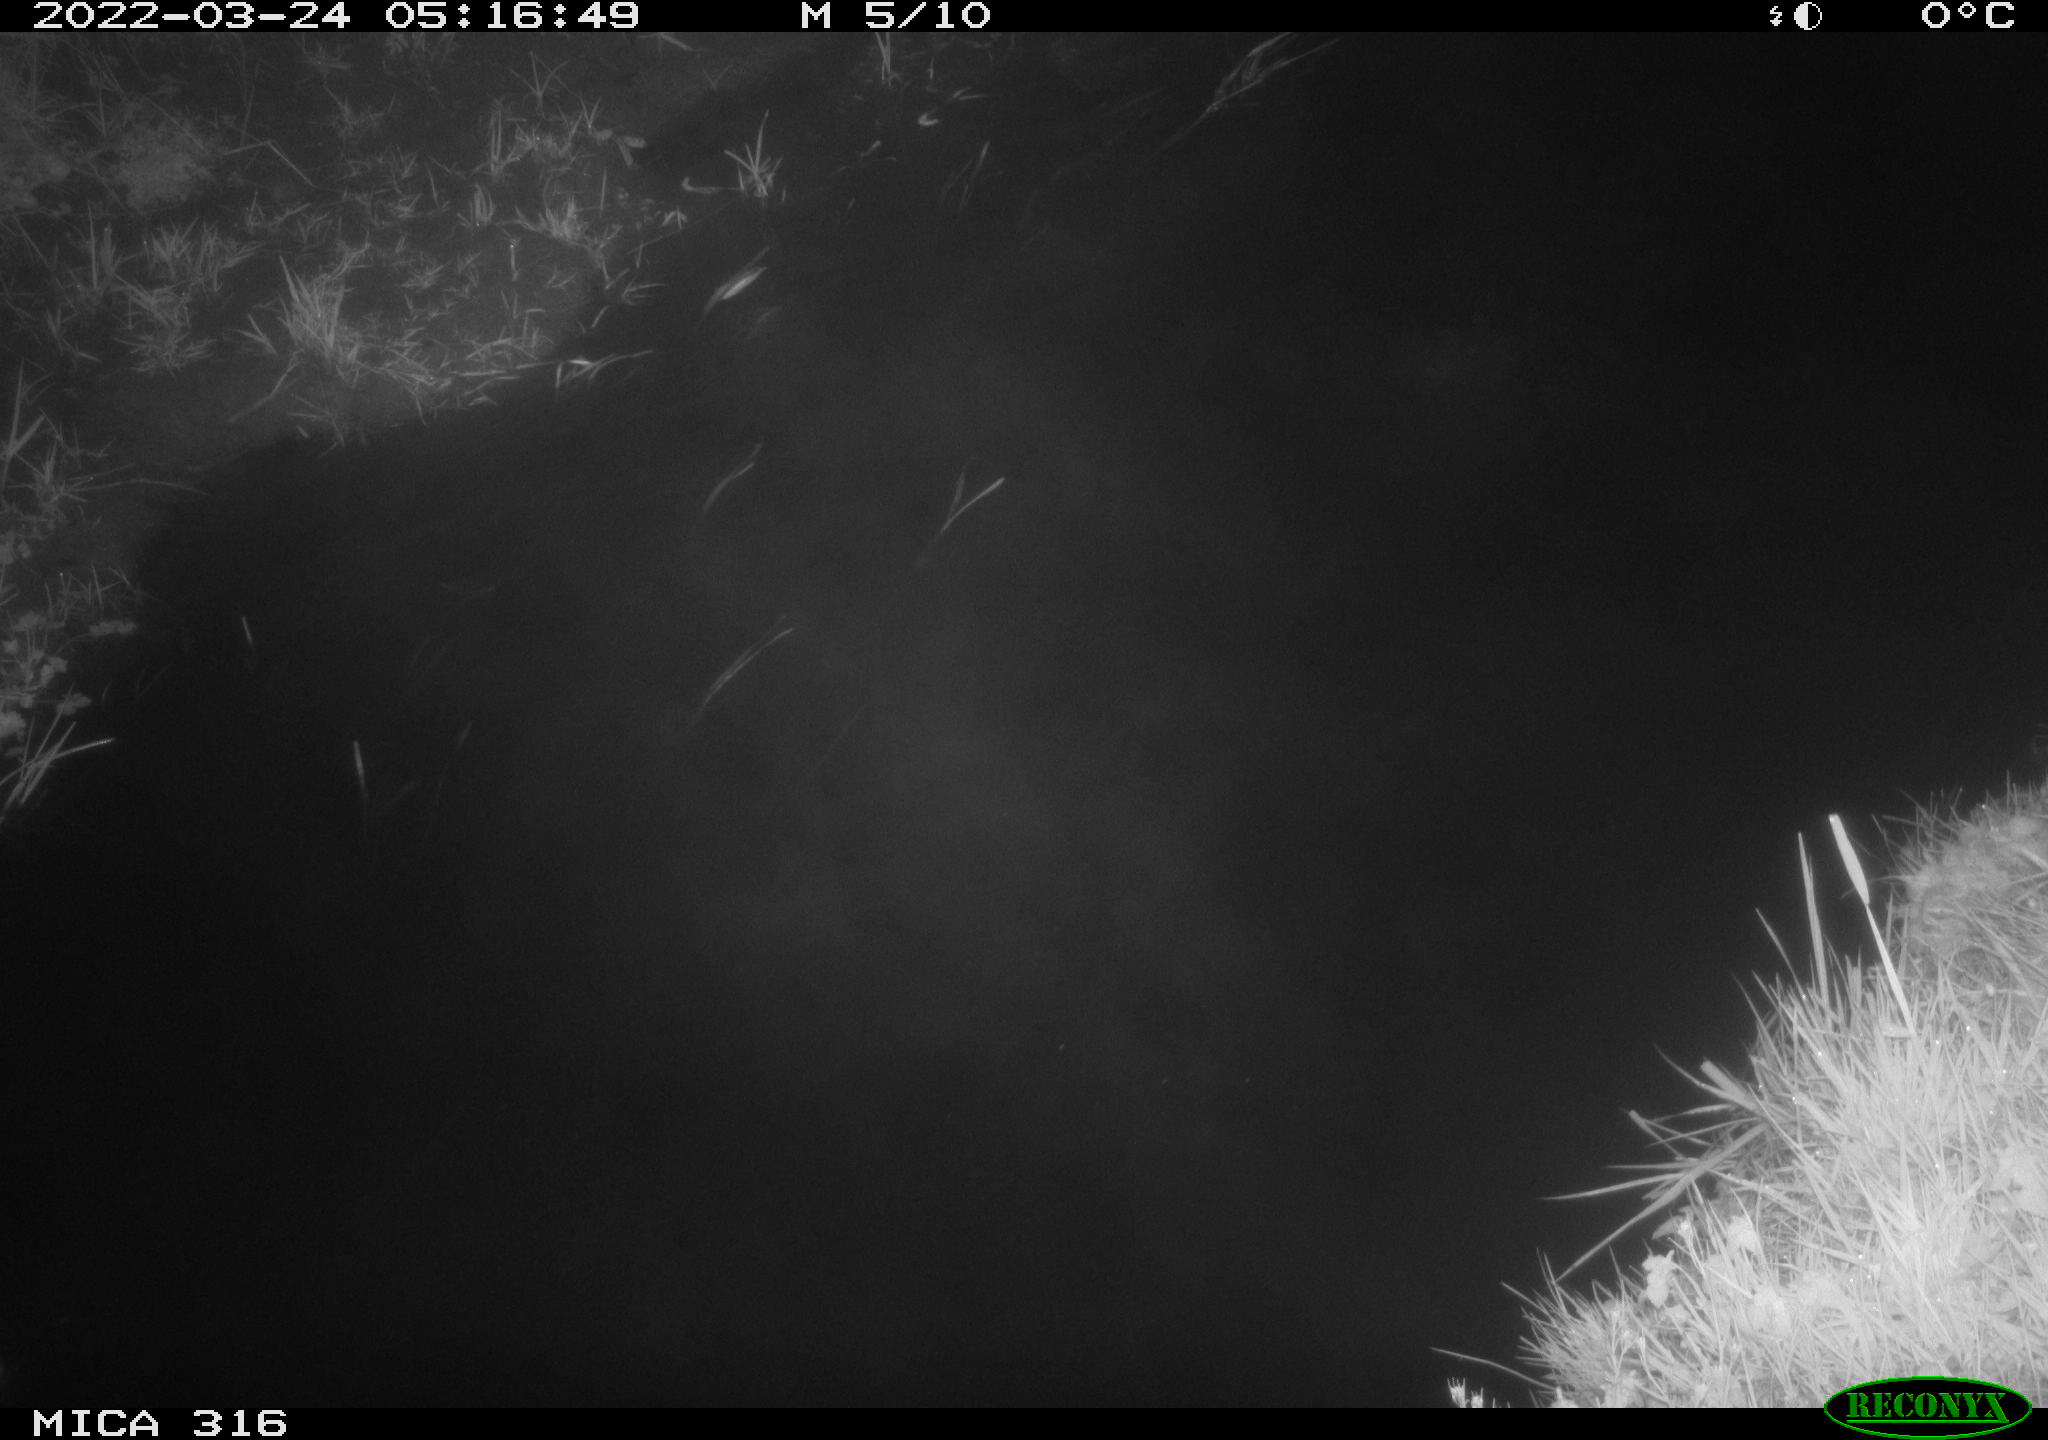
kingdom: Animalia
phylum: Chordata
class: Aves
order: Anseriformes
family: Anatidae
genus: Anas
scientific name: Anas platyrhynchos
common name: Mallard
